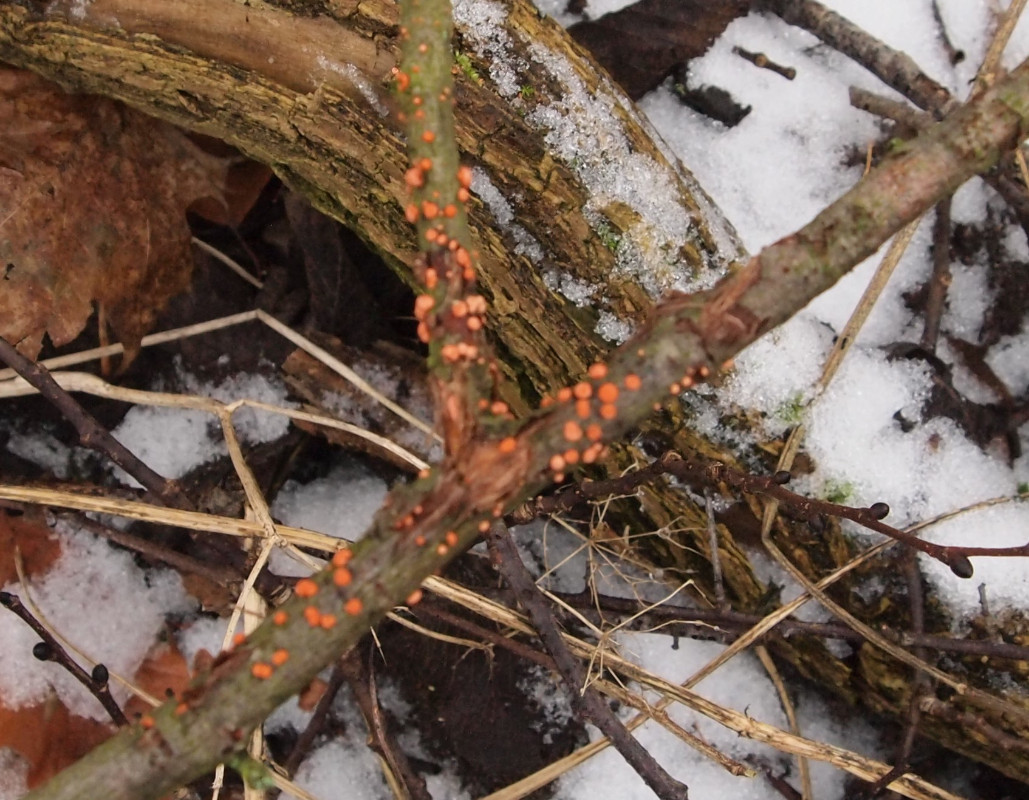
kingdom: Fungi
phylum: Ascomycota
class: Sordariomycetes
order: Hypocreales
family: Nectriaceae
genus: Nectria
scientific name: Nectria cinnabarina
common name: almindelig cinnobersvamp
